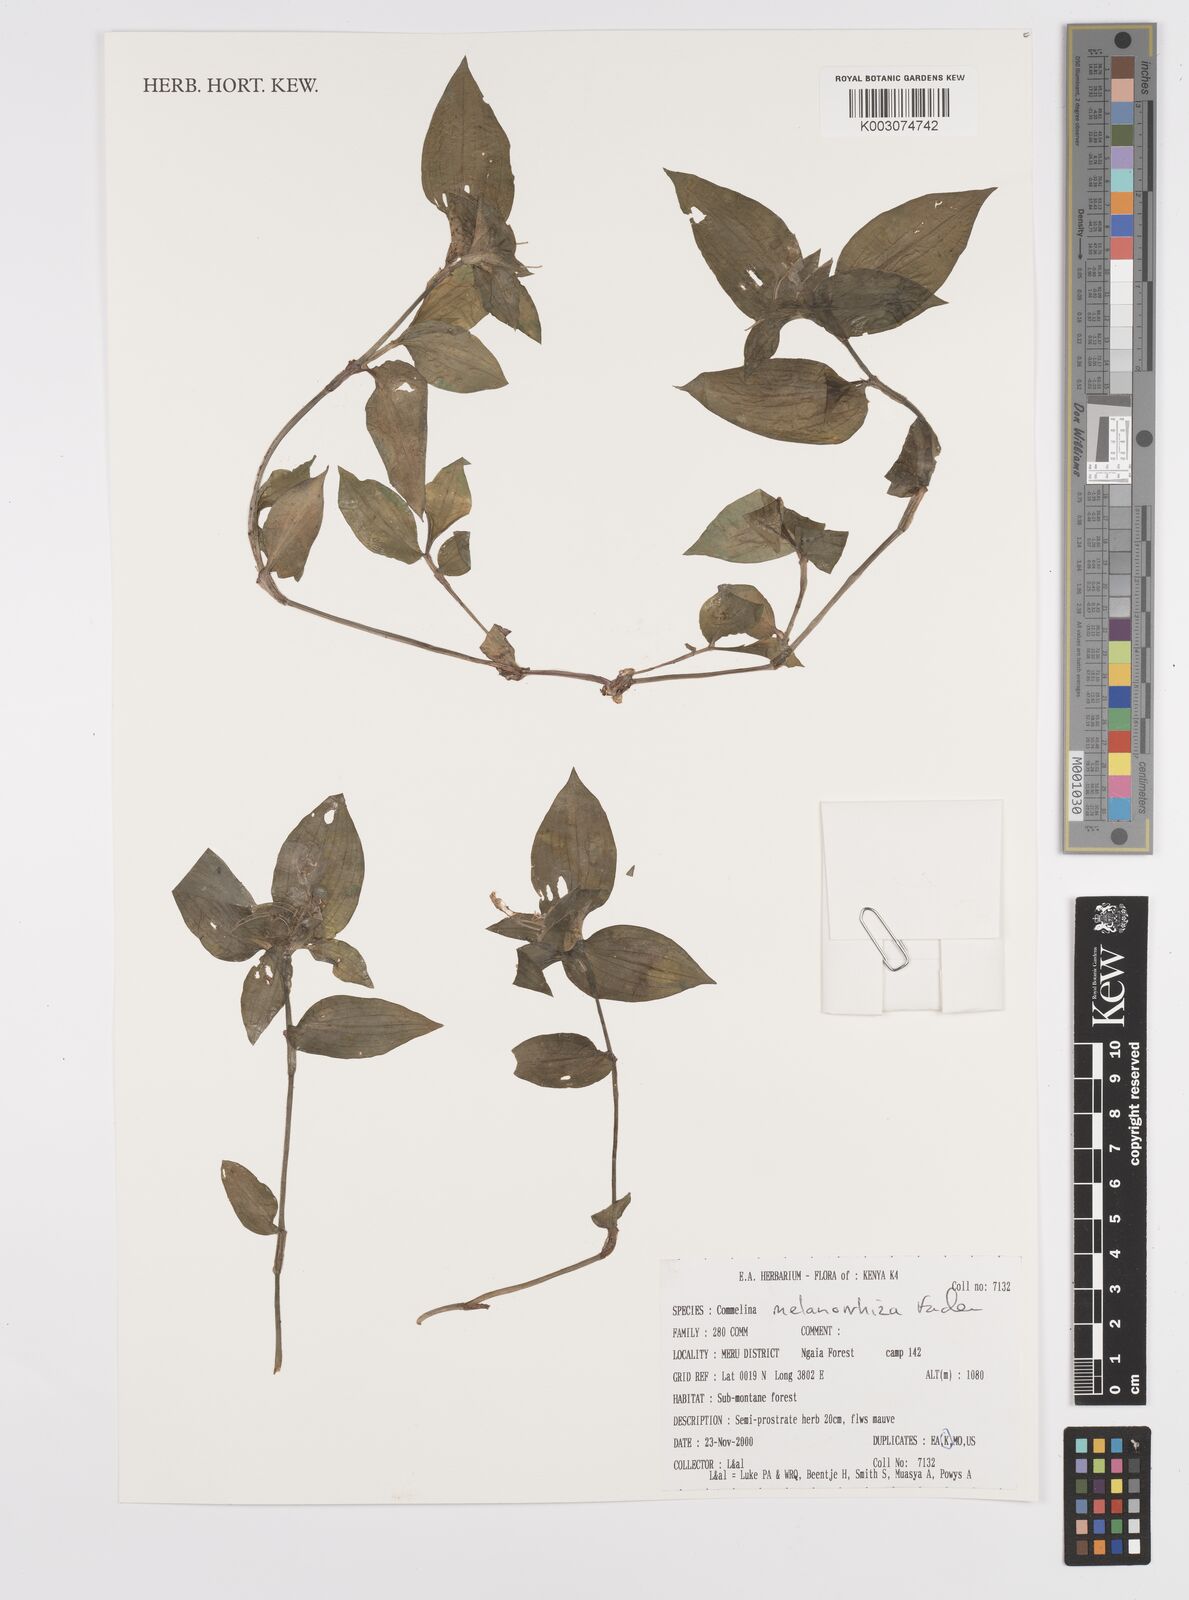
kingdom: Plantae
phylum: Tracheophyta
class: Liliopsida
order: Commelinales
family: Commelinaceae
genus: Commelina
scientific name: Commelina melanorrhiza
